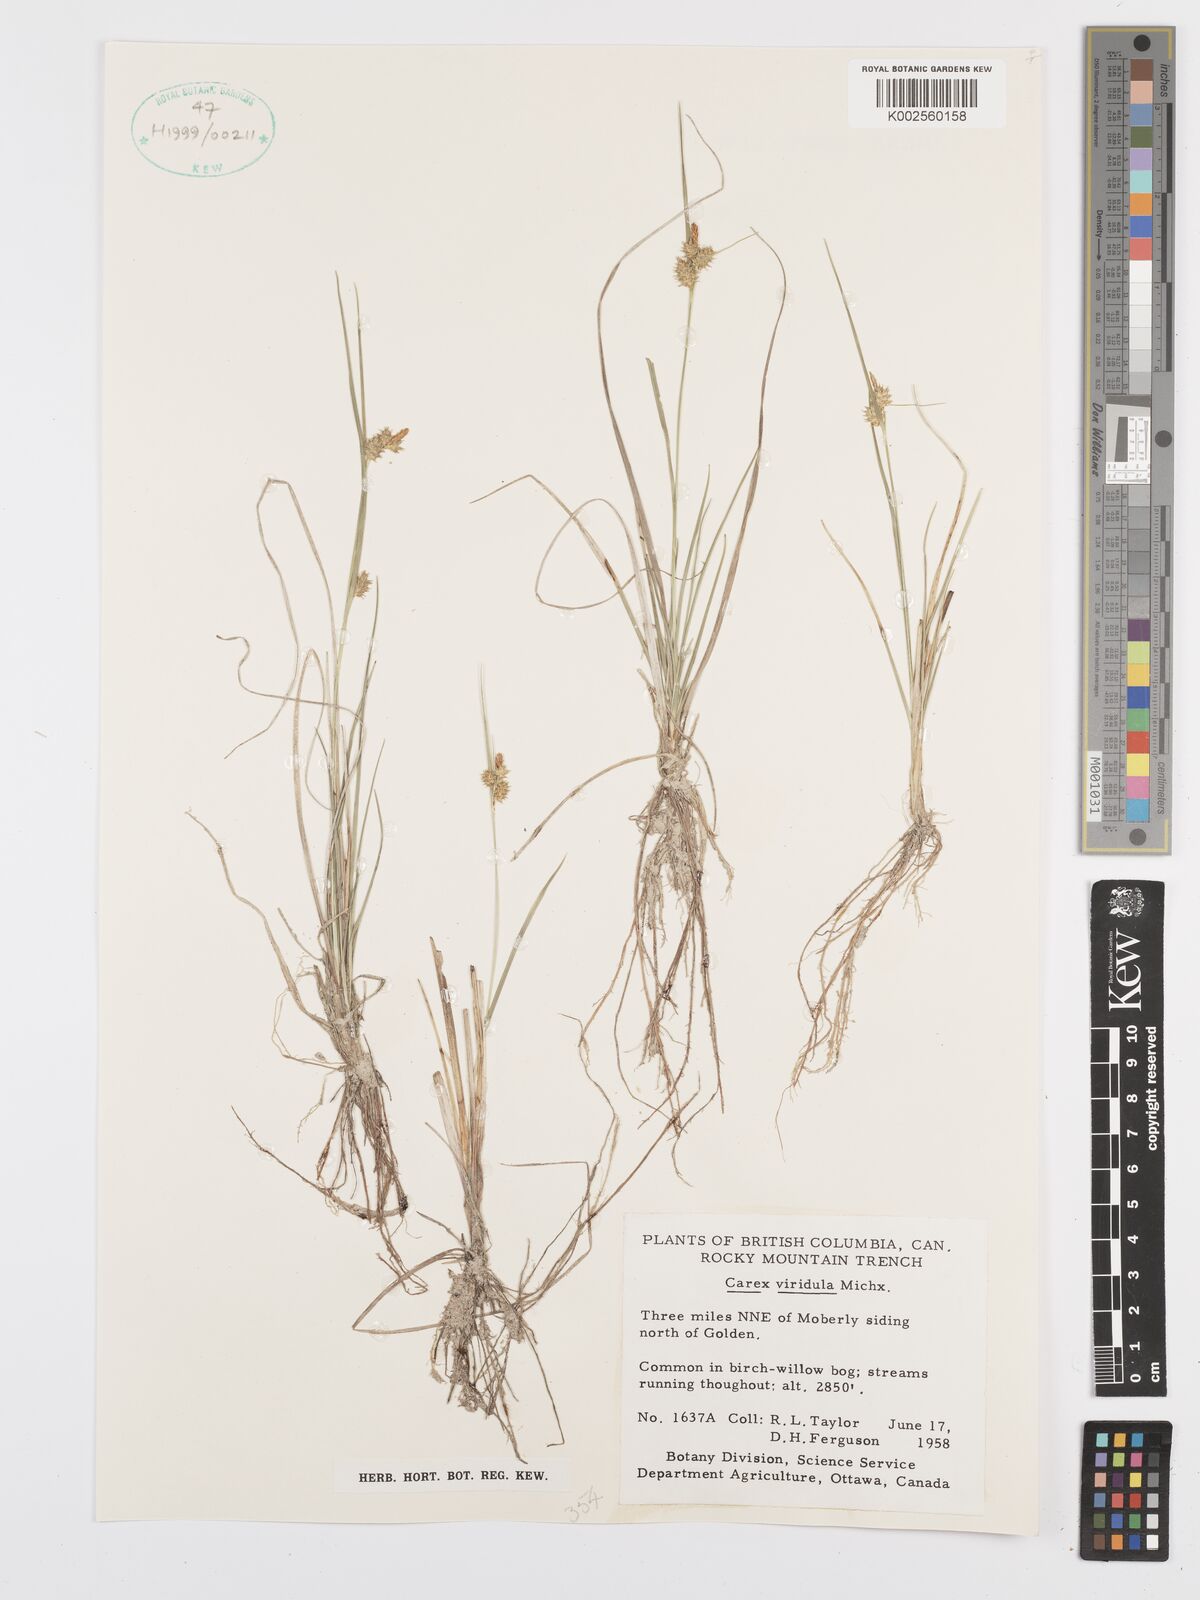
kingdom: Plantae
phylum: Tracheophyta
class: Liliopsida
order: Poales
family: Cyperaceae
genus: Carex
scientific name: Carex oederi
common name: Common & small-fruited yellow-sedge
